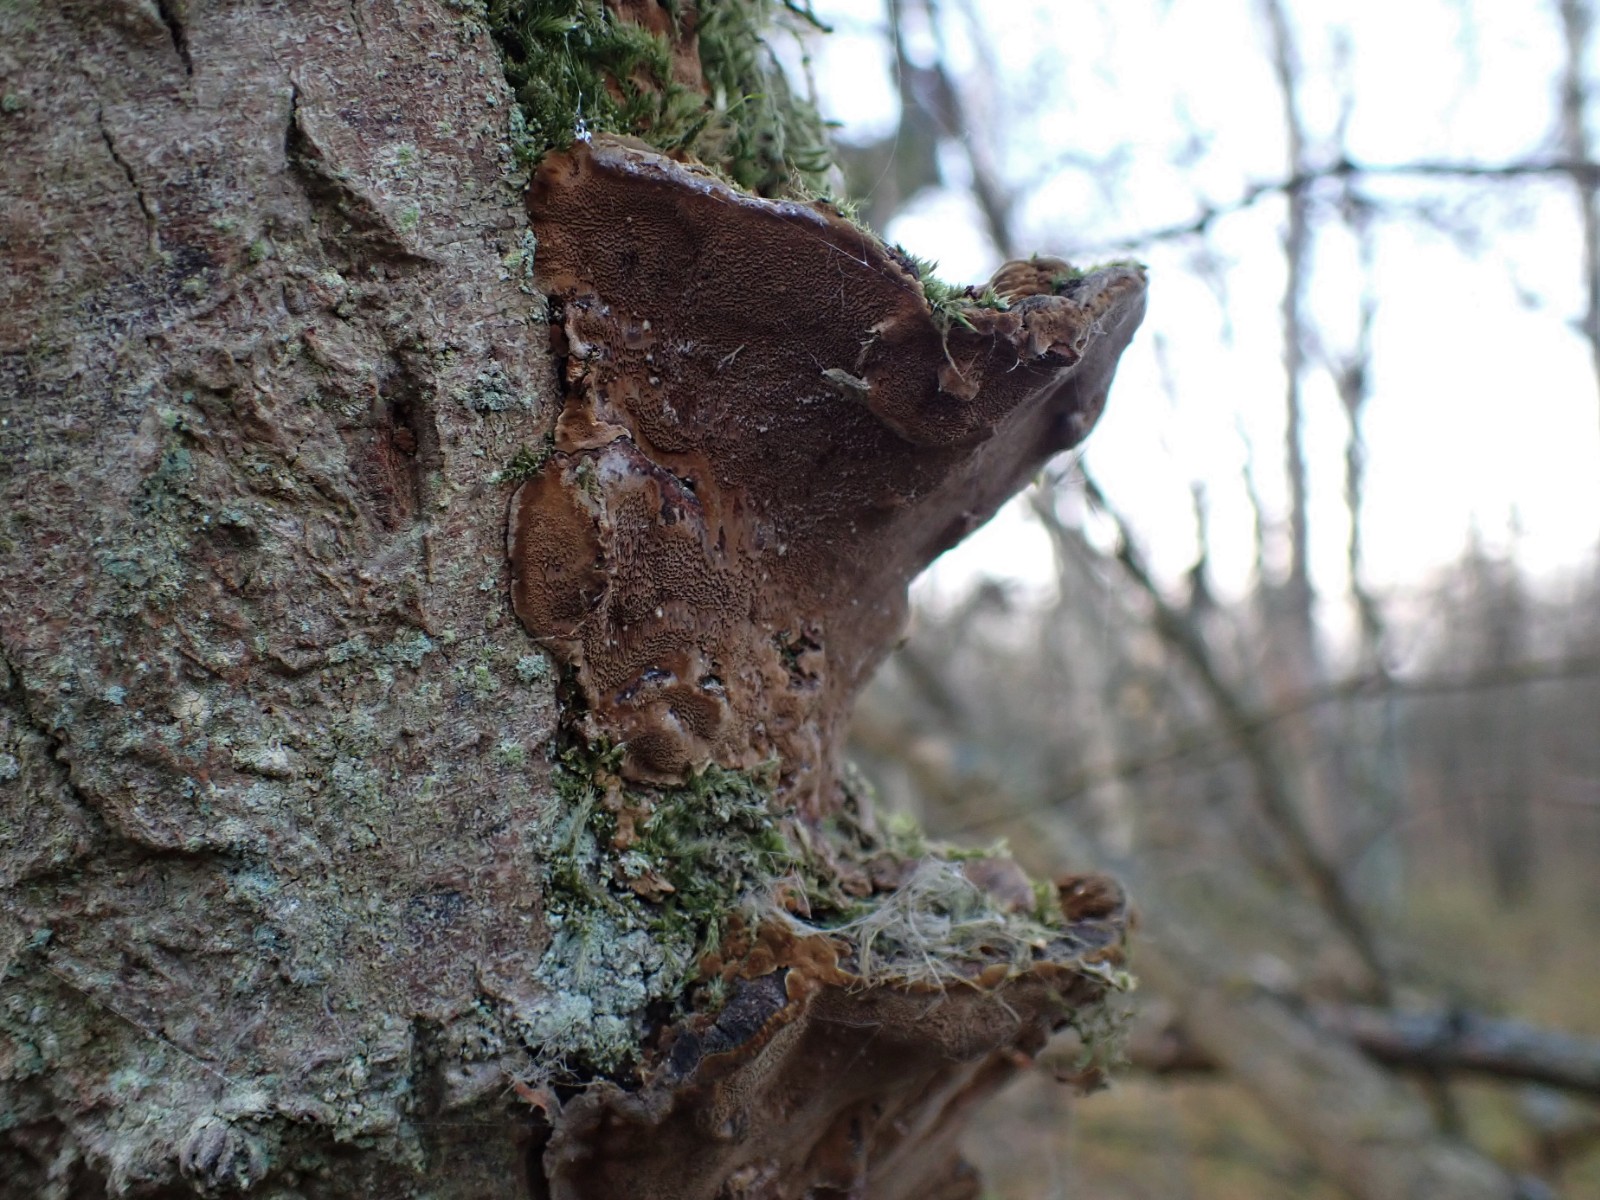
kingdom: Fungi
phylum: Basidiomycota
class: Agaricomycetes
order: Hymenochaetales
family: Hymenochaetaceae
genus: Xanthoporia
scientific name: Xanthoporia radiata
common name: elle-spejlporesvamp
